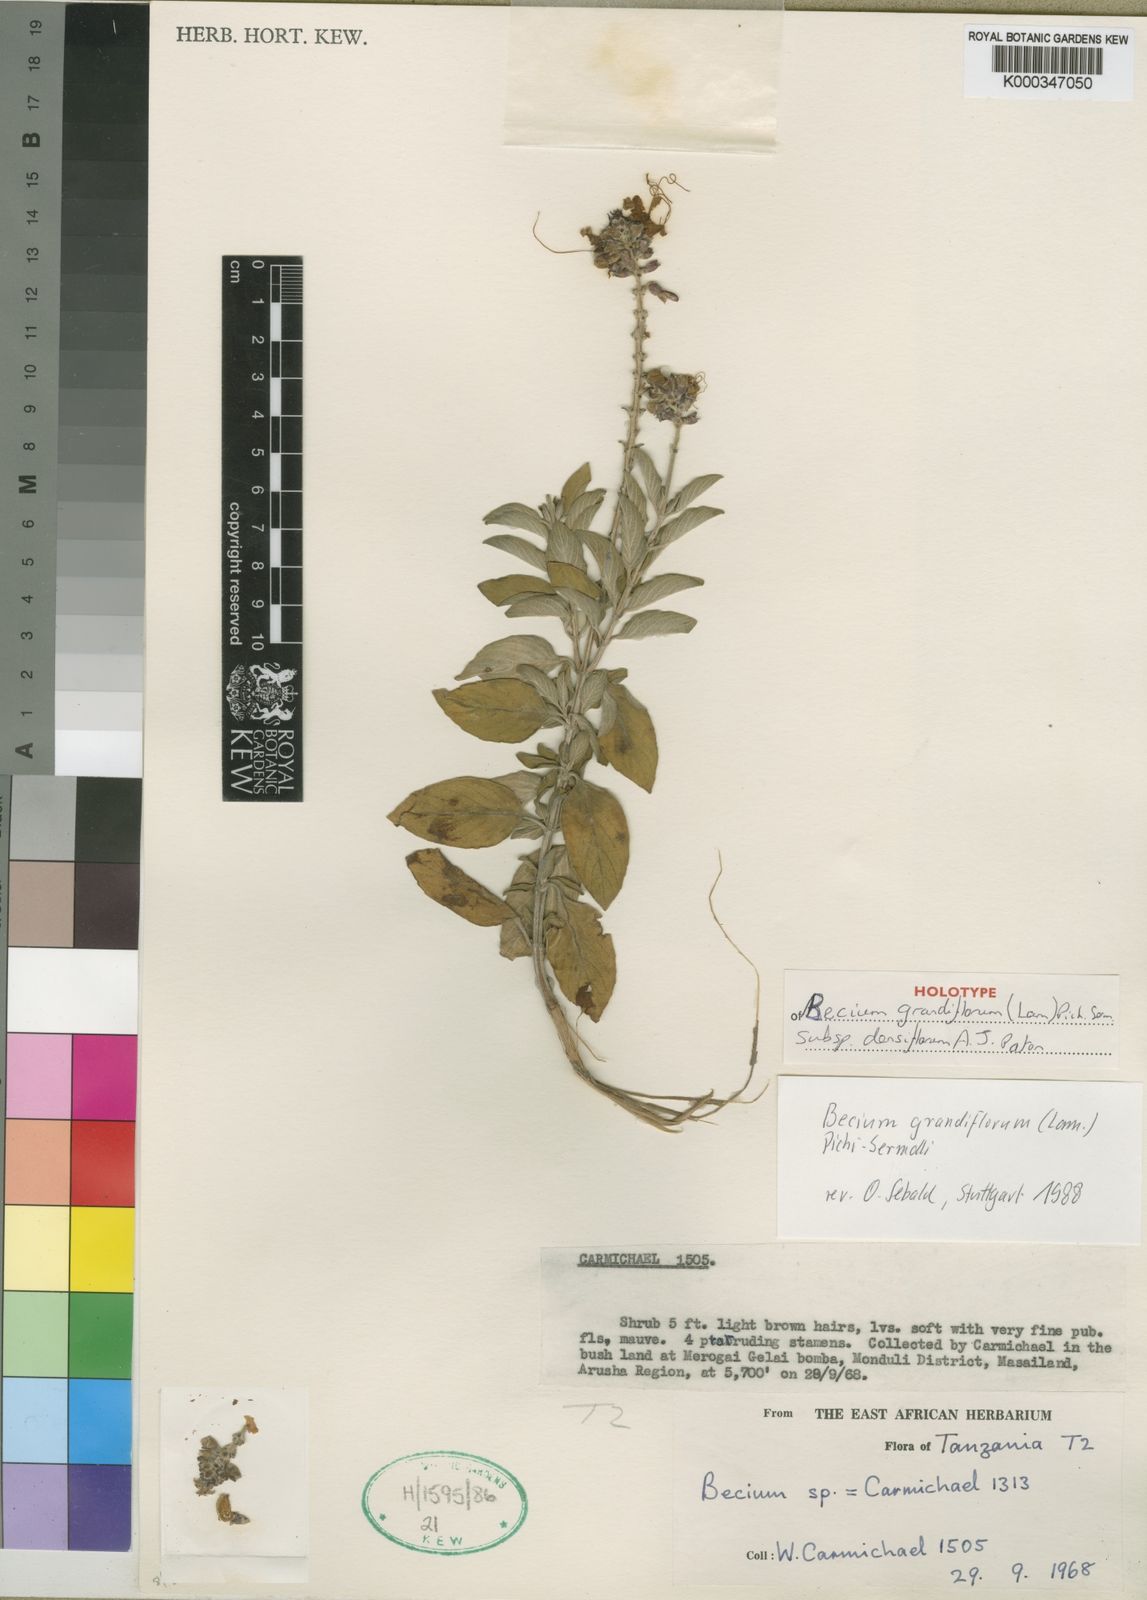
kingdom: Plantae
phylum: Tracheophyta
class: Magnoliopsida
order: Lamiales
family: Lamiaceae
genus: Ocimum
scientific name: Ocimum grandiflorum
